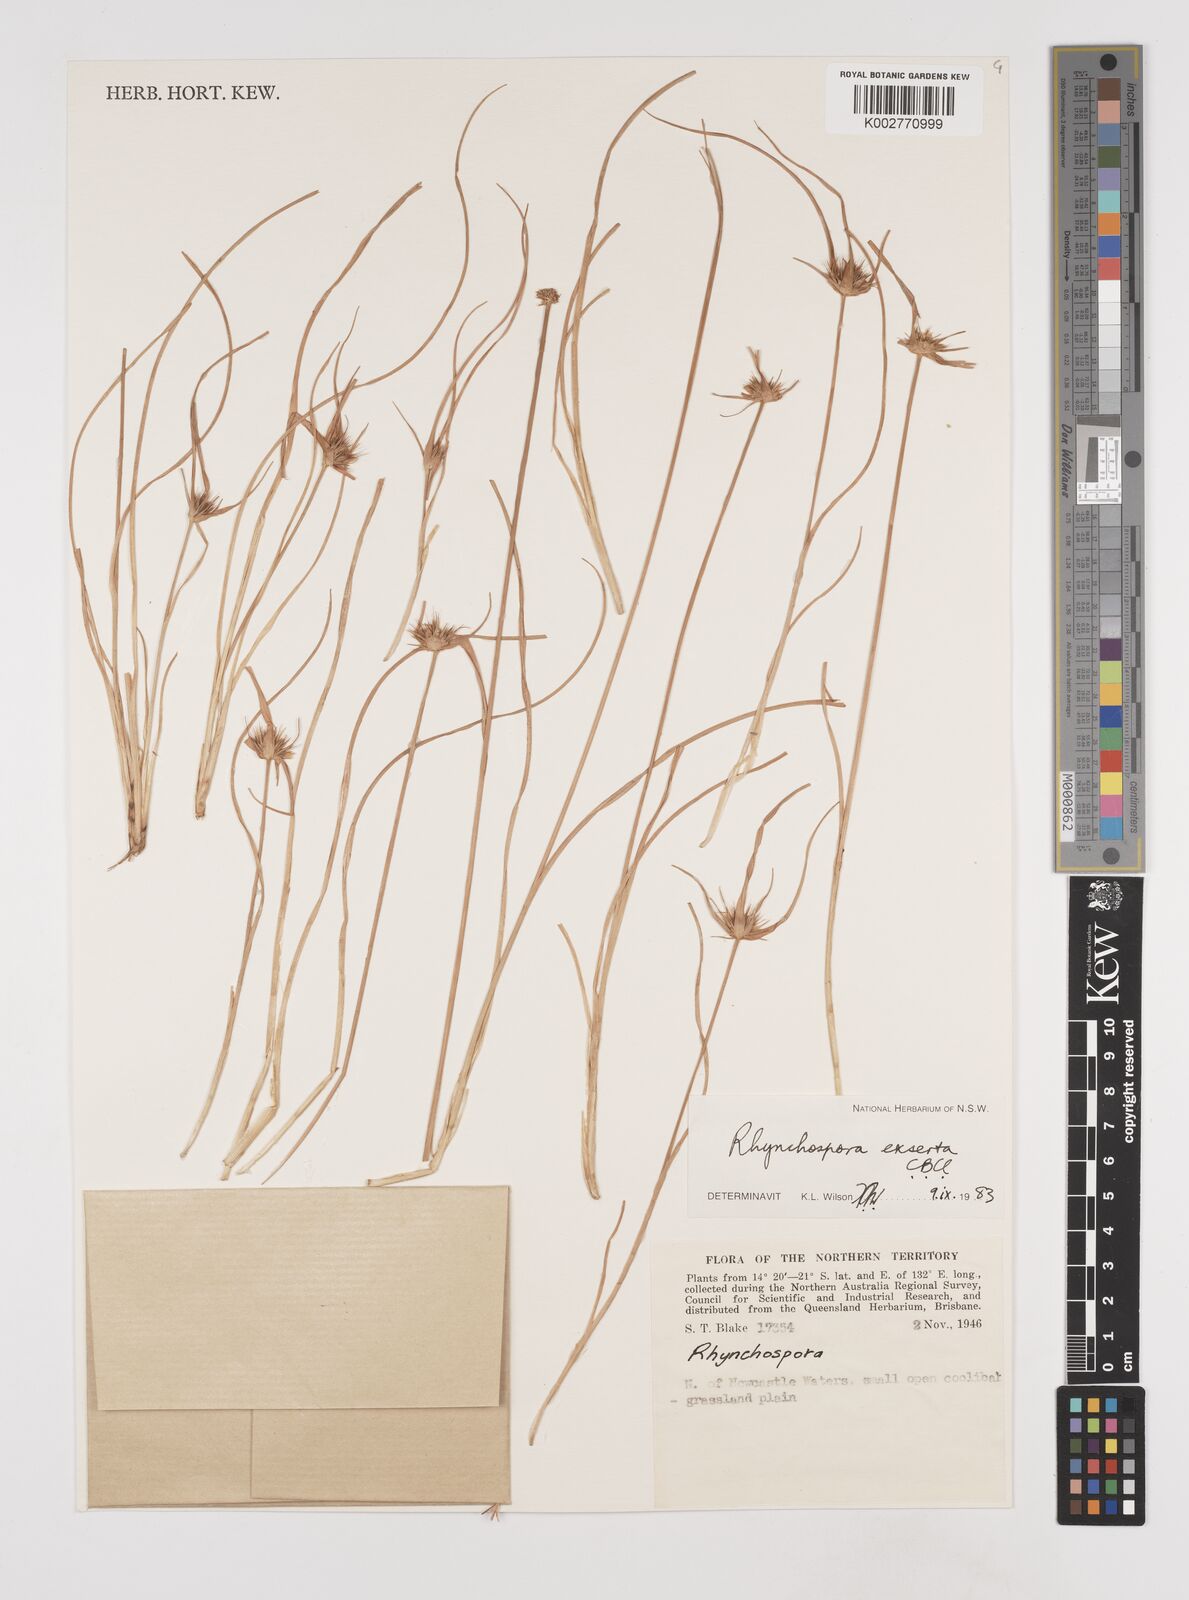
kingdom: Plantae
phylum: Tracheophyta
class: Liliopsida
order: Poales
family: Cyperaceae
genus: Rhynchospora
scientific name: Rhynchospora exserta
